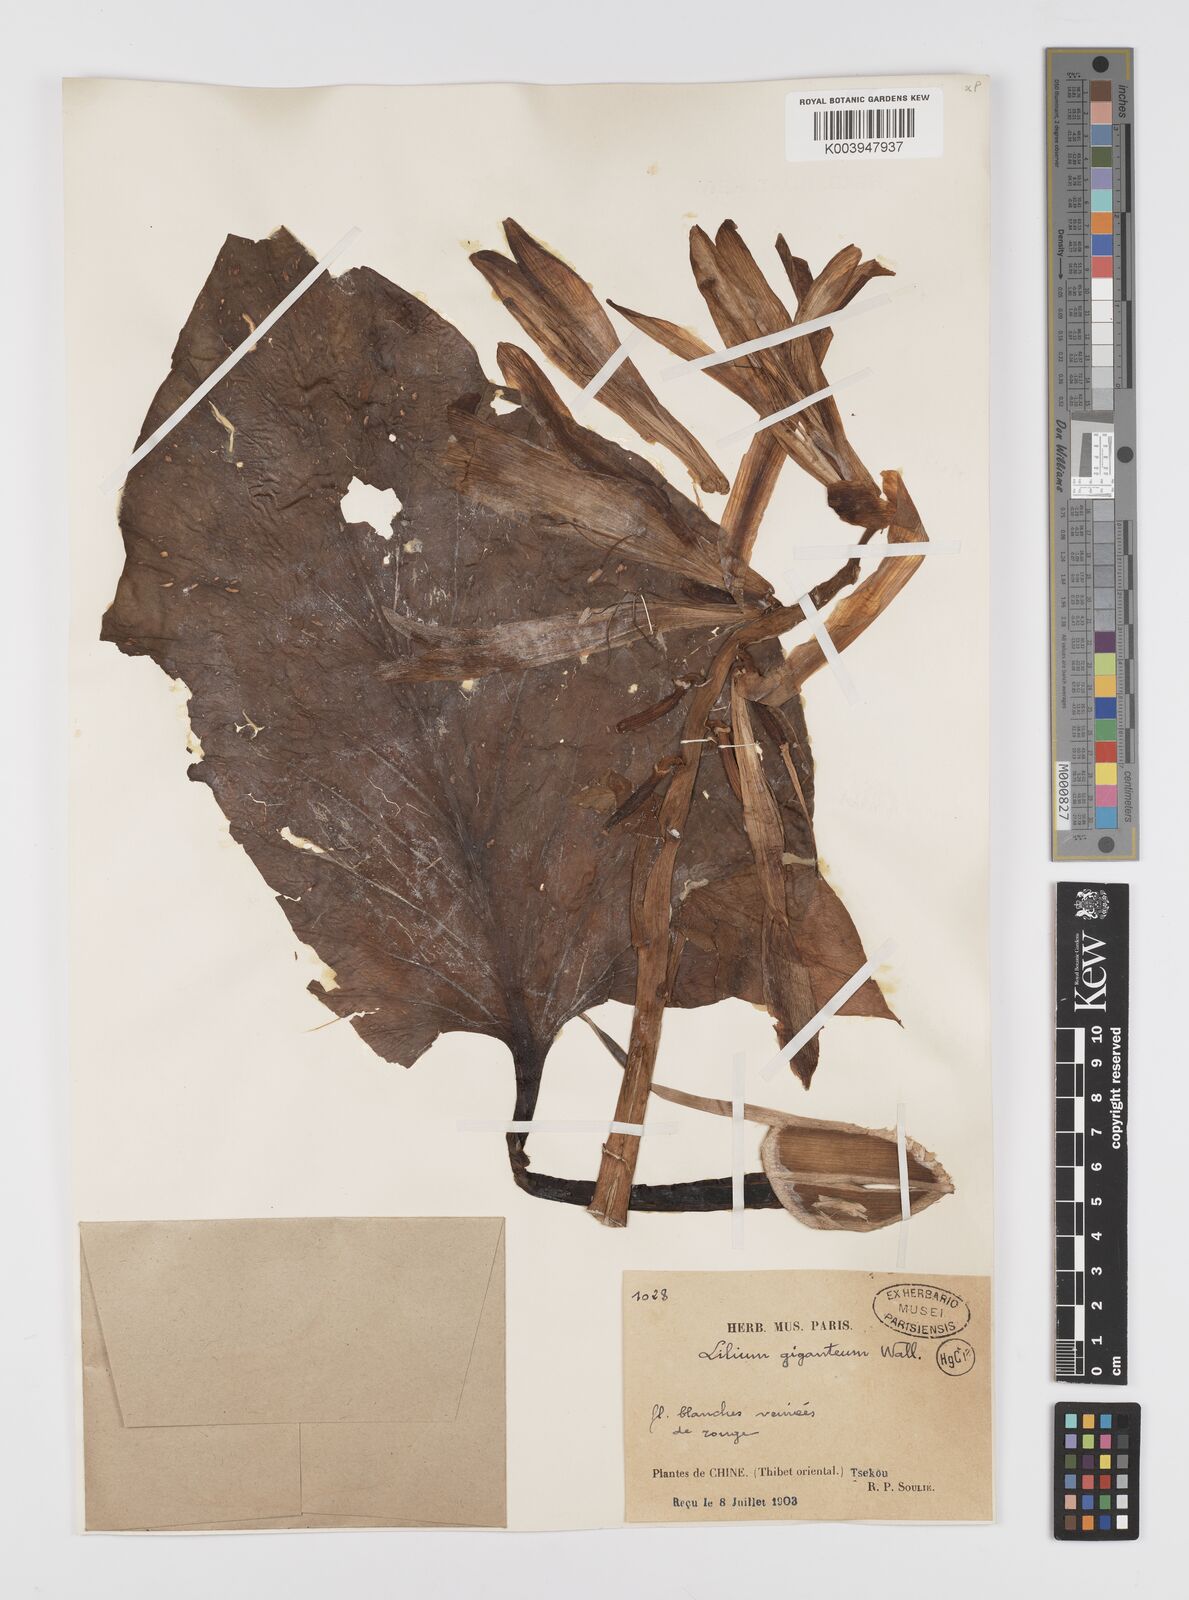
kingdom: Plantae
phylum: Tracheophyta
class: Liliopsida
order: Liliales
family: Liliaceae
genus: Cardiocrinum
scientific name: Cardiocrinum giganteum
